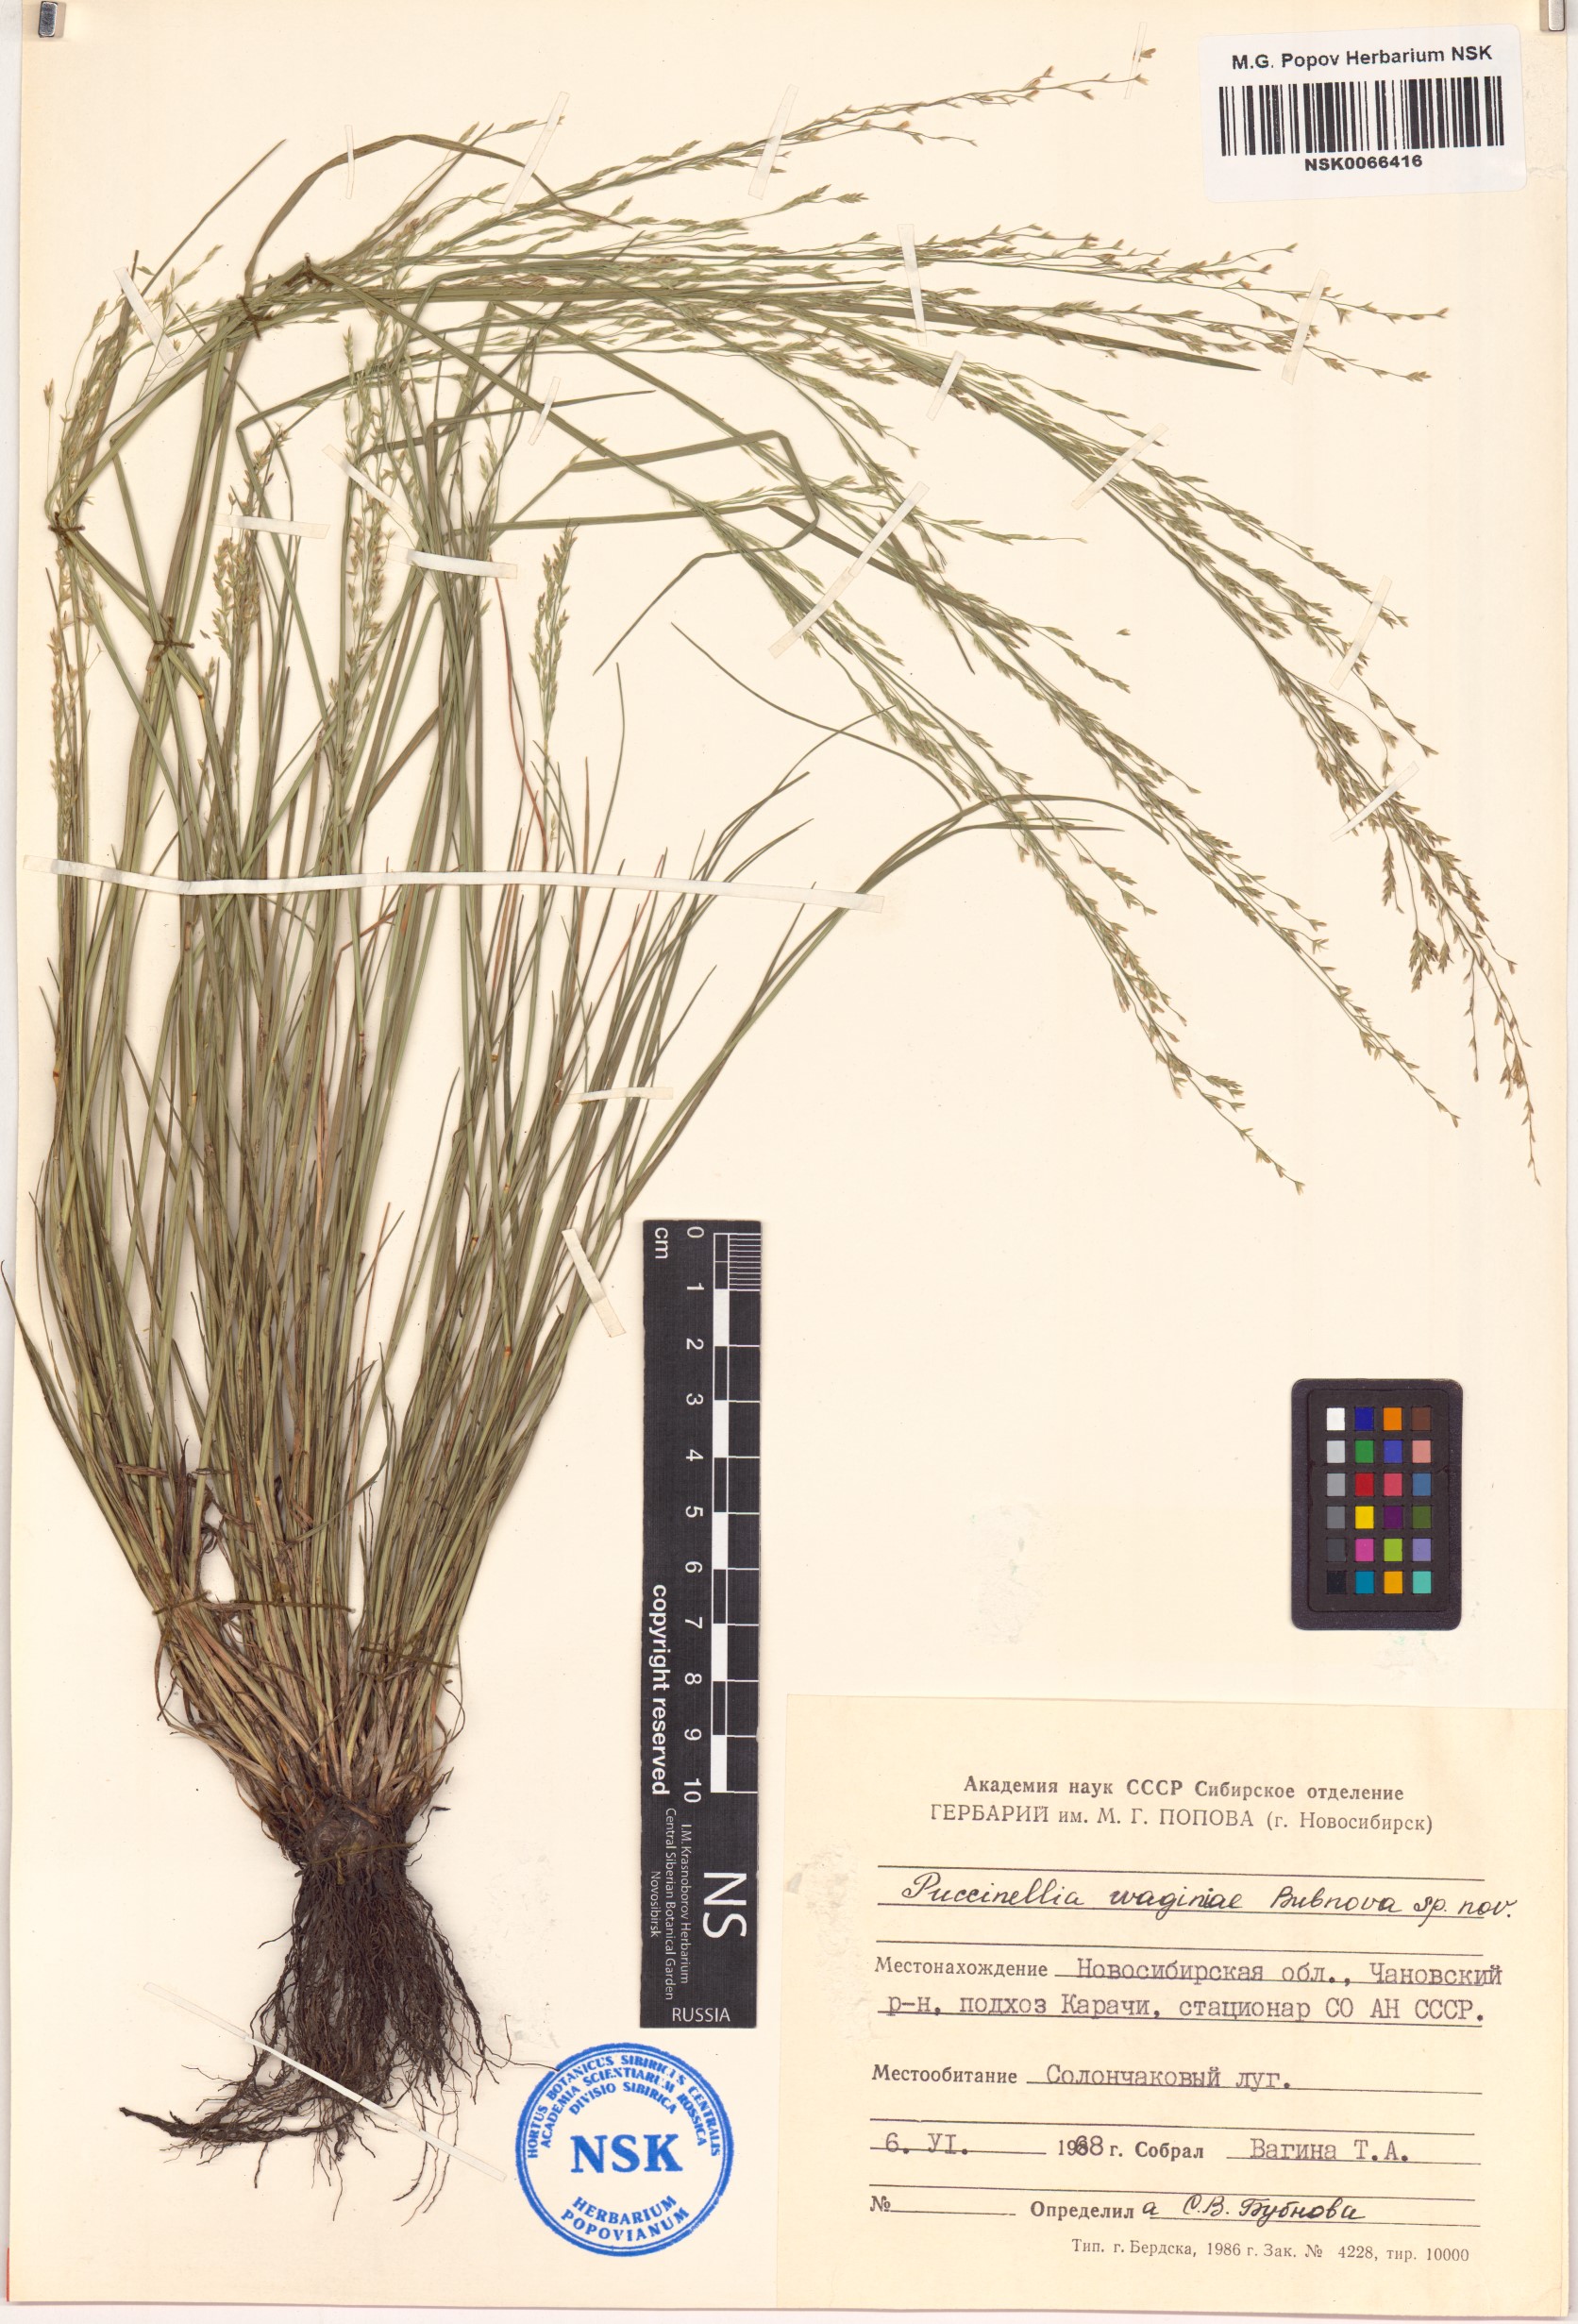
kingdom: Plantae
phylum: Tracheophyta
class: Liliopsida
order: Poales
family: Poaceae
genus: Puccinellia
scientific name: Puccinellia gigantea
